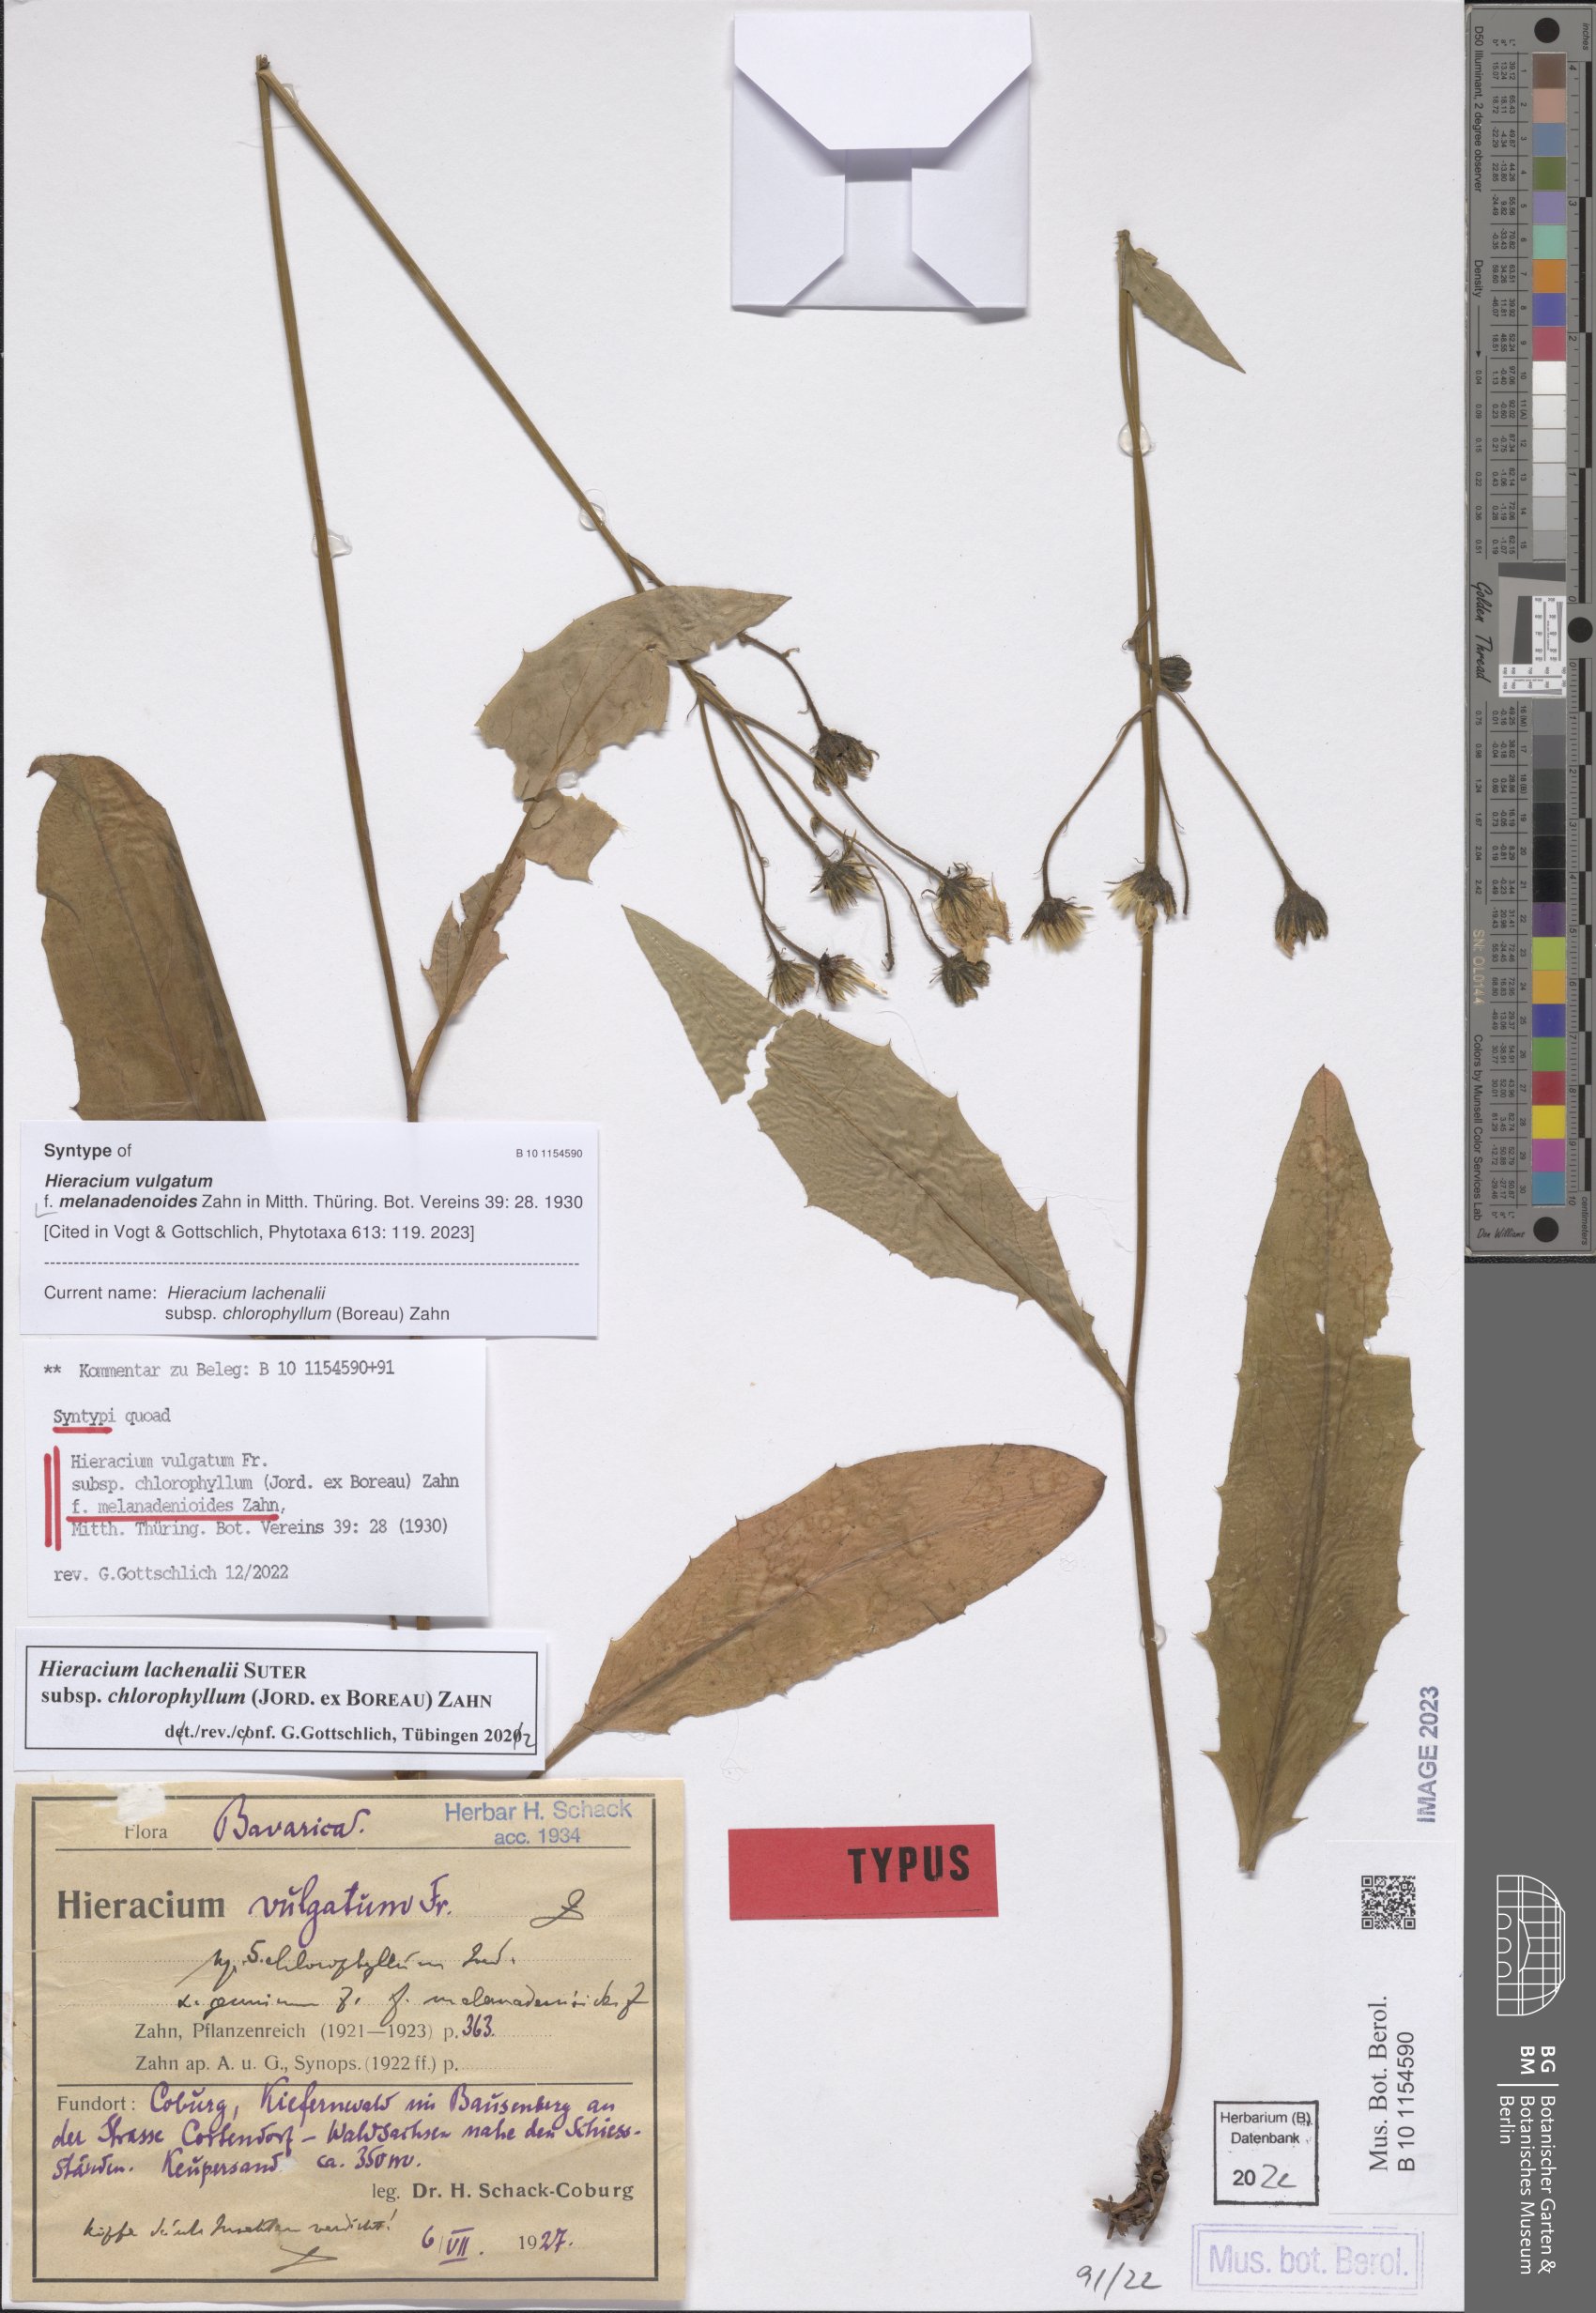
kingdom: Plantae
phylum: Tracheophyta
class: Magnoliopsida
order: Asterales
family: Asteraceae
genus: Hieracium
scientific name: Hieracium vulgatum
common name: Common hawkweed
